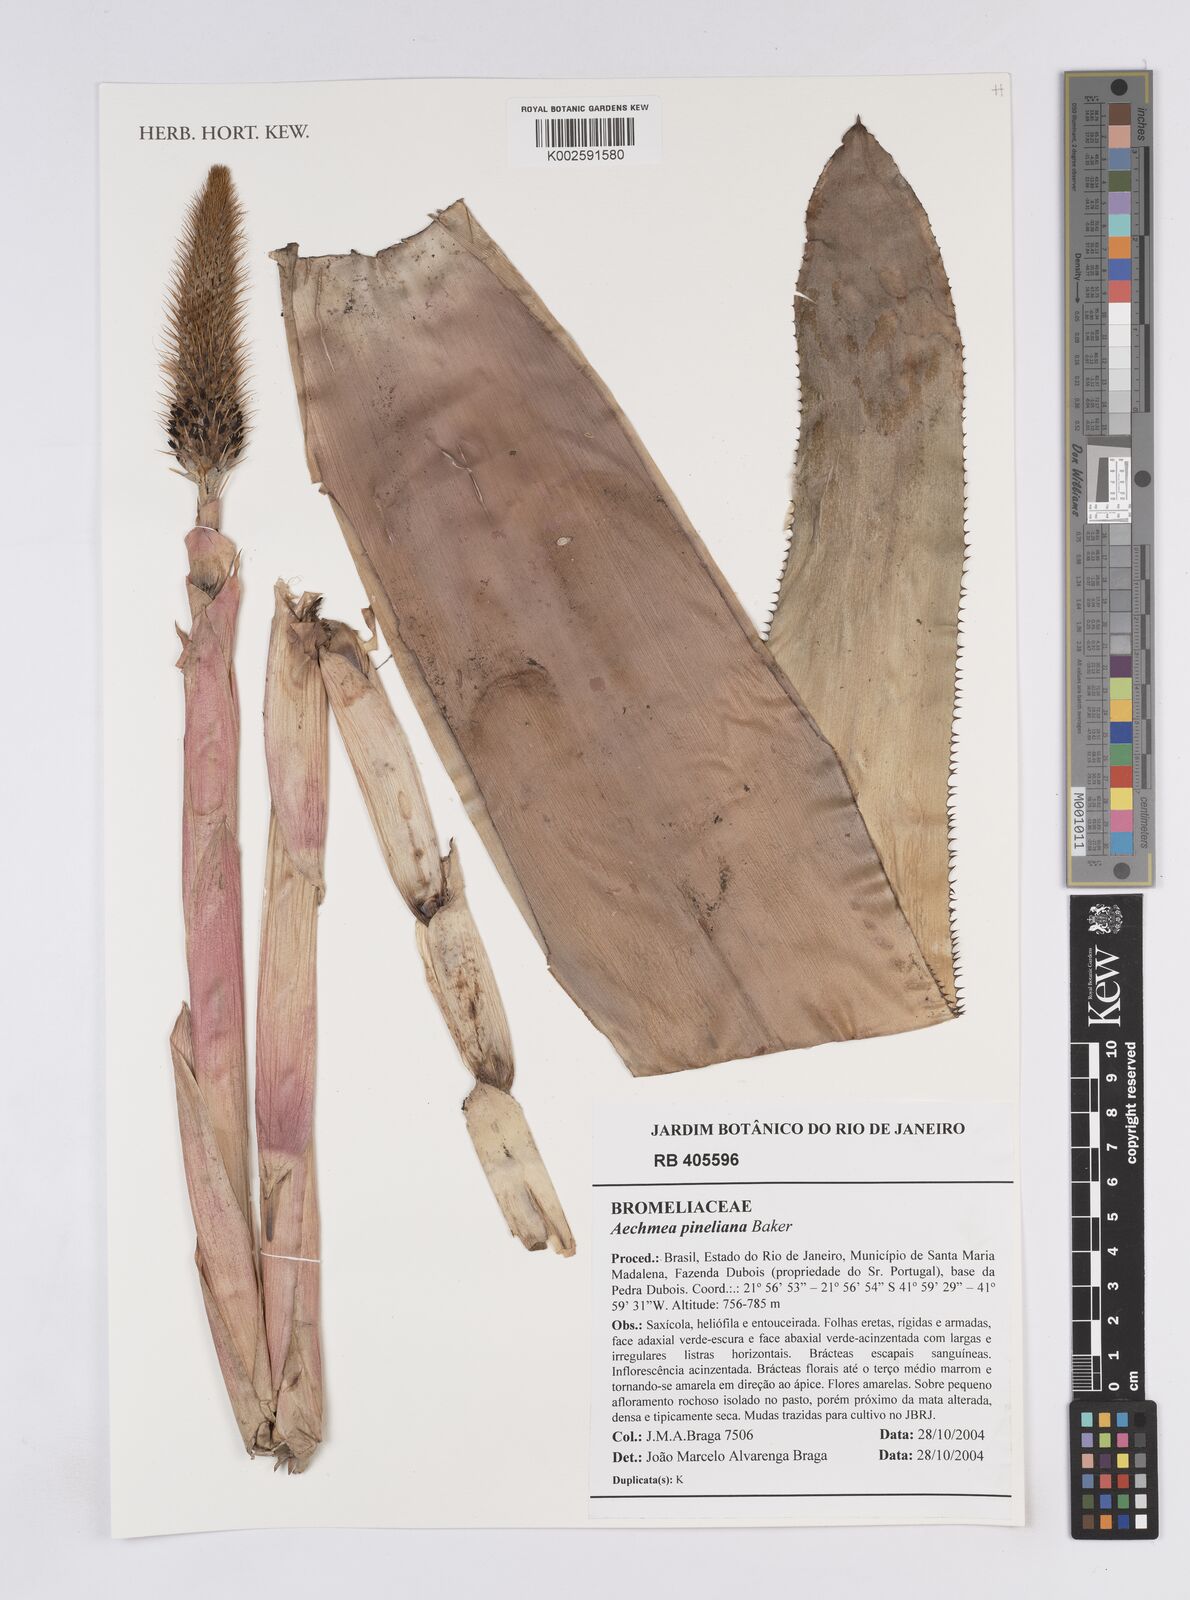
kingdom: Plantae
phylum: Tracheophyta
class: Liliopsida
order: Poales
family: Bromeliaceae
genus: Aechmea
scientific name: Aechmea pineliana
